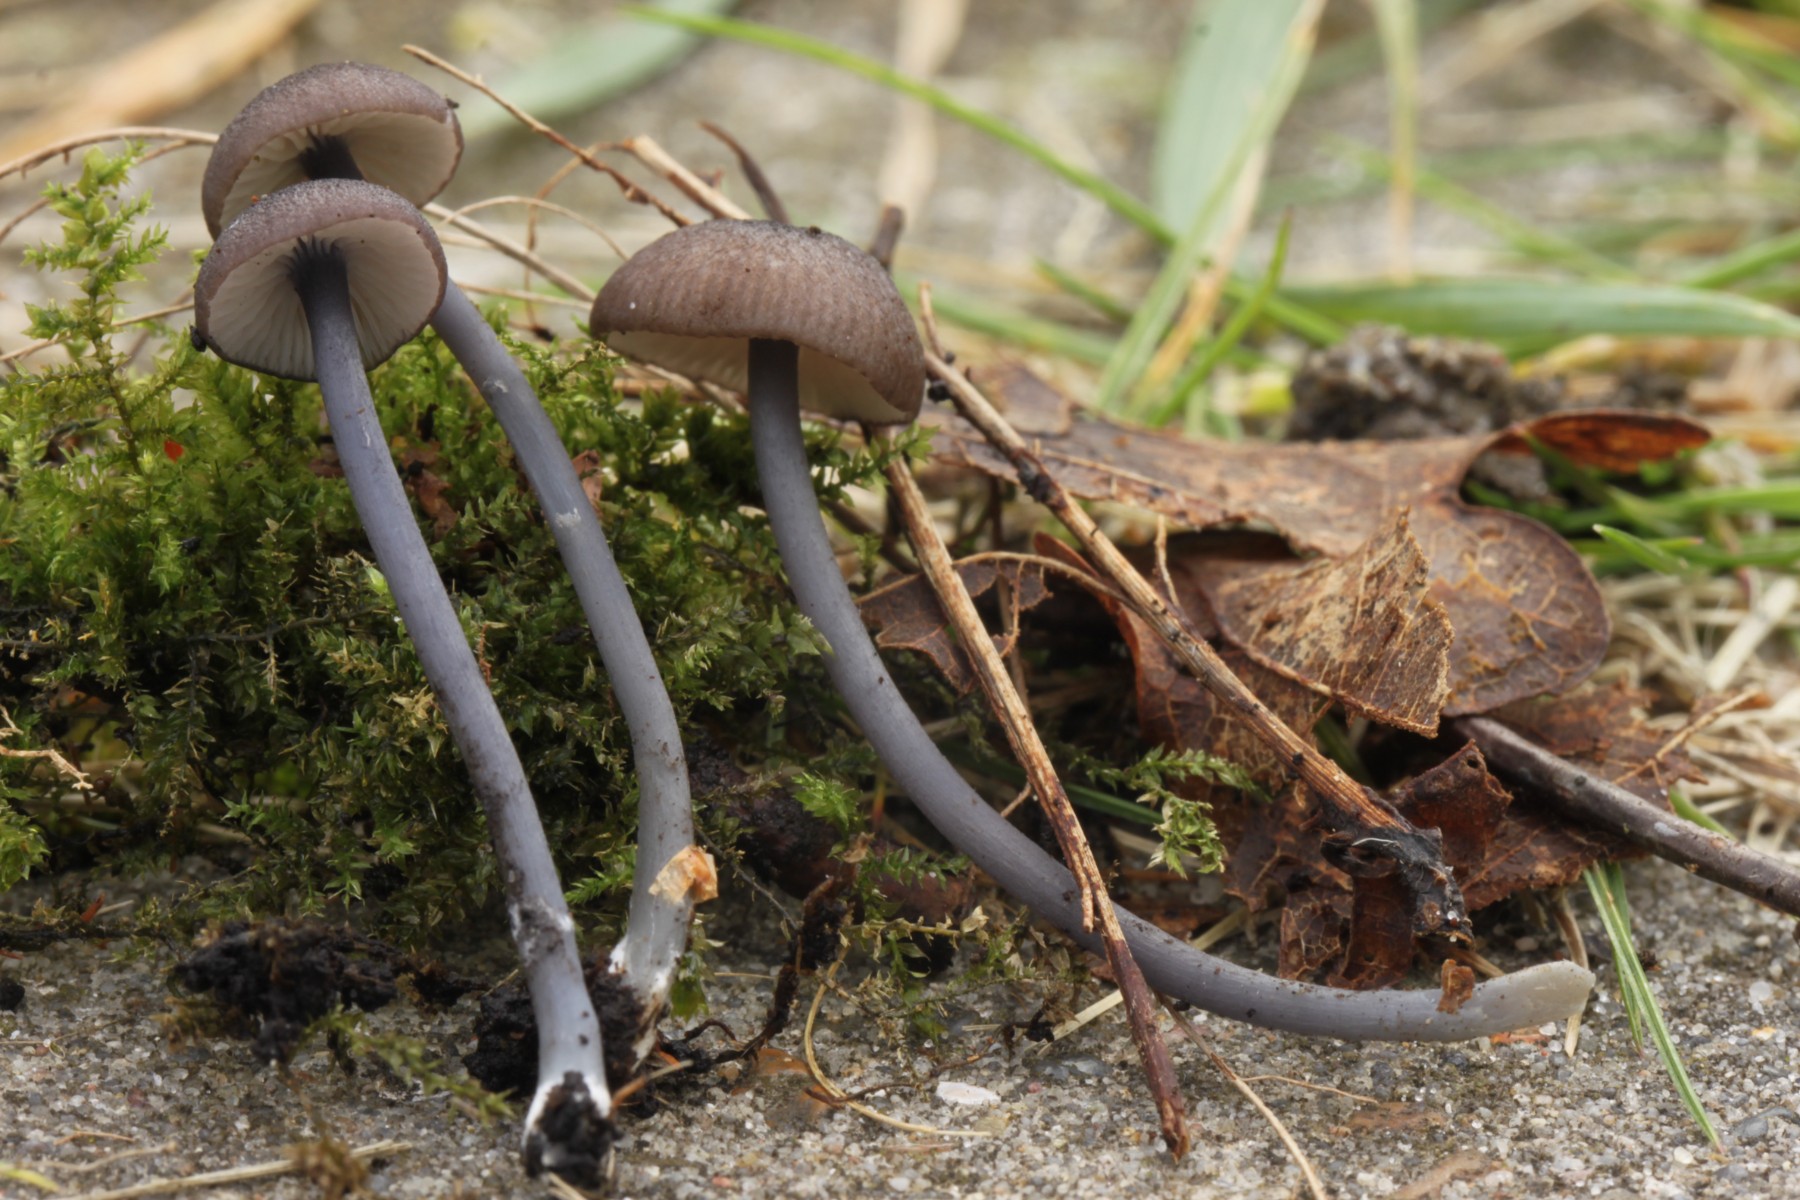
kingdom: Fungi
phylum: Basidiomycota
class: Agaricomycetes
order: Agaricales
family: Entolomataceae
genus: Entoloma
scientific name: Entoloma poliopus
